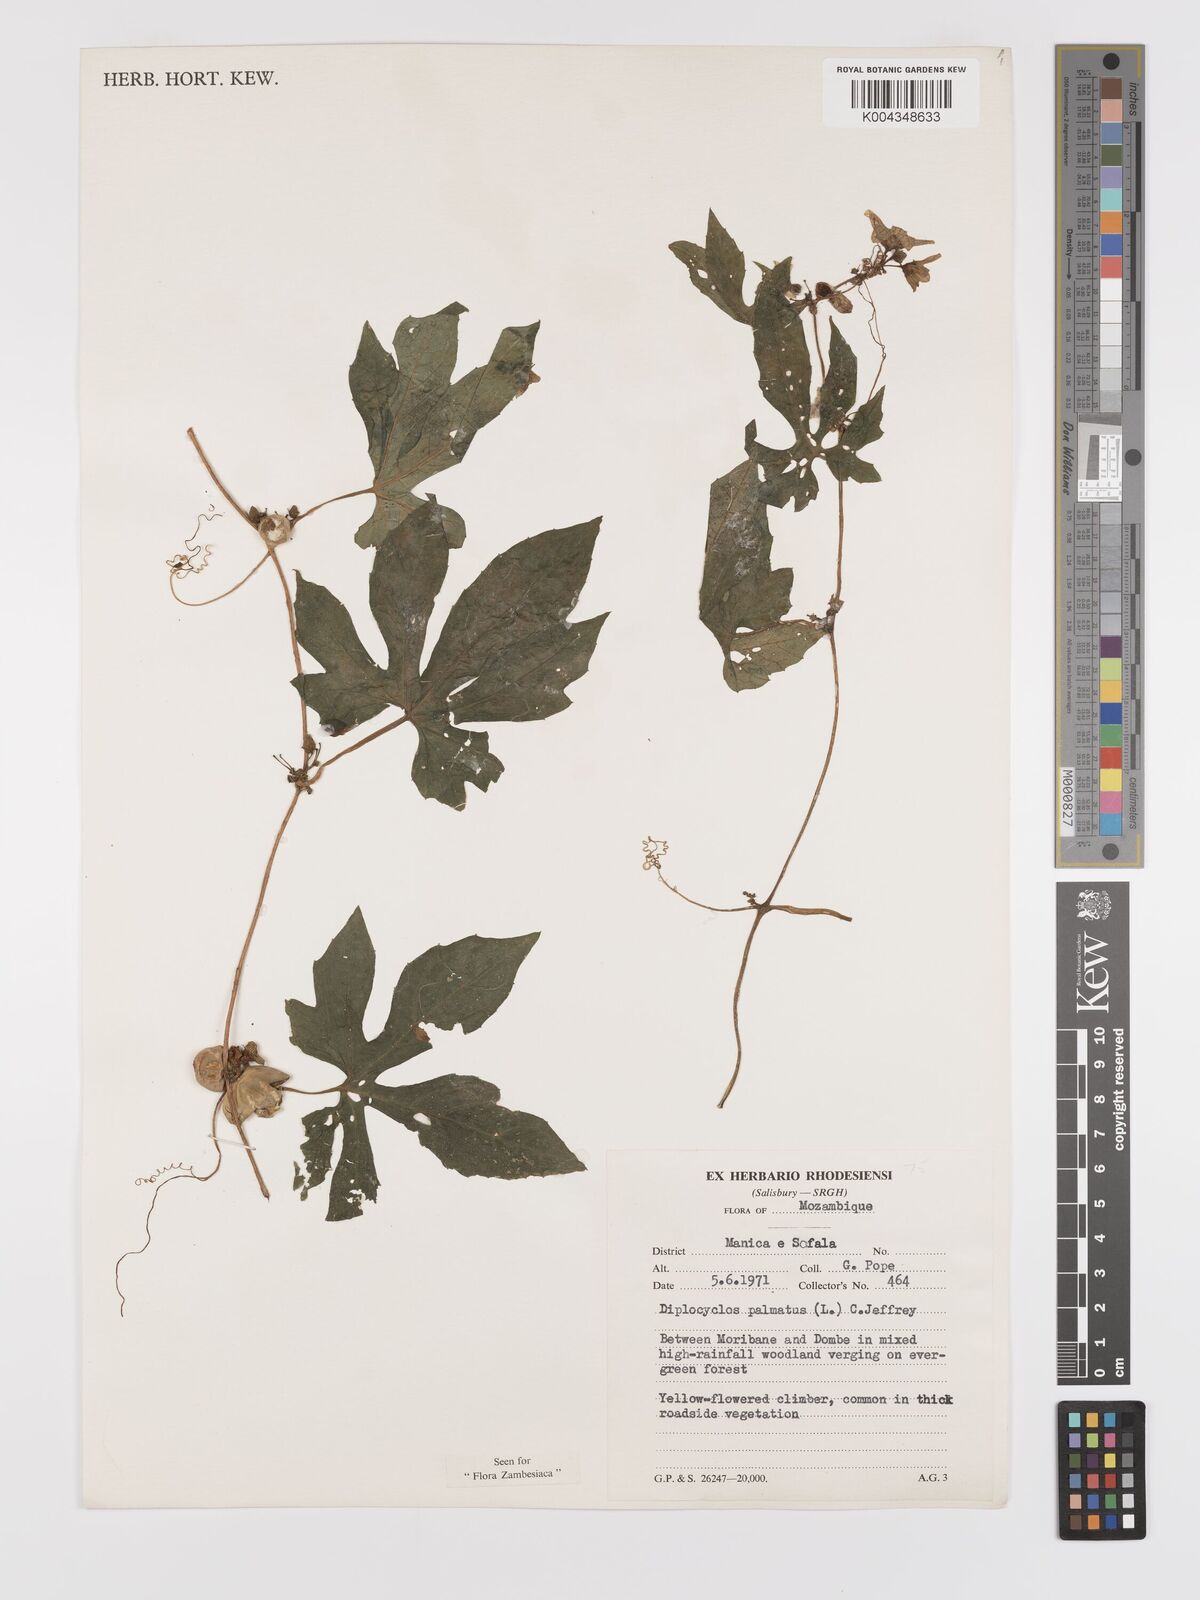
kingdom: Plantae
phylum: Tracheophyta
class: Magnoliopsida
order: Cucurbitales
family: Cucurbitaceae
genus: Diplocyclos
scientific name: Diplocyclos palmatus
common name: Striped-cucumber
